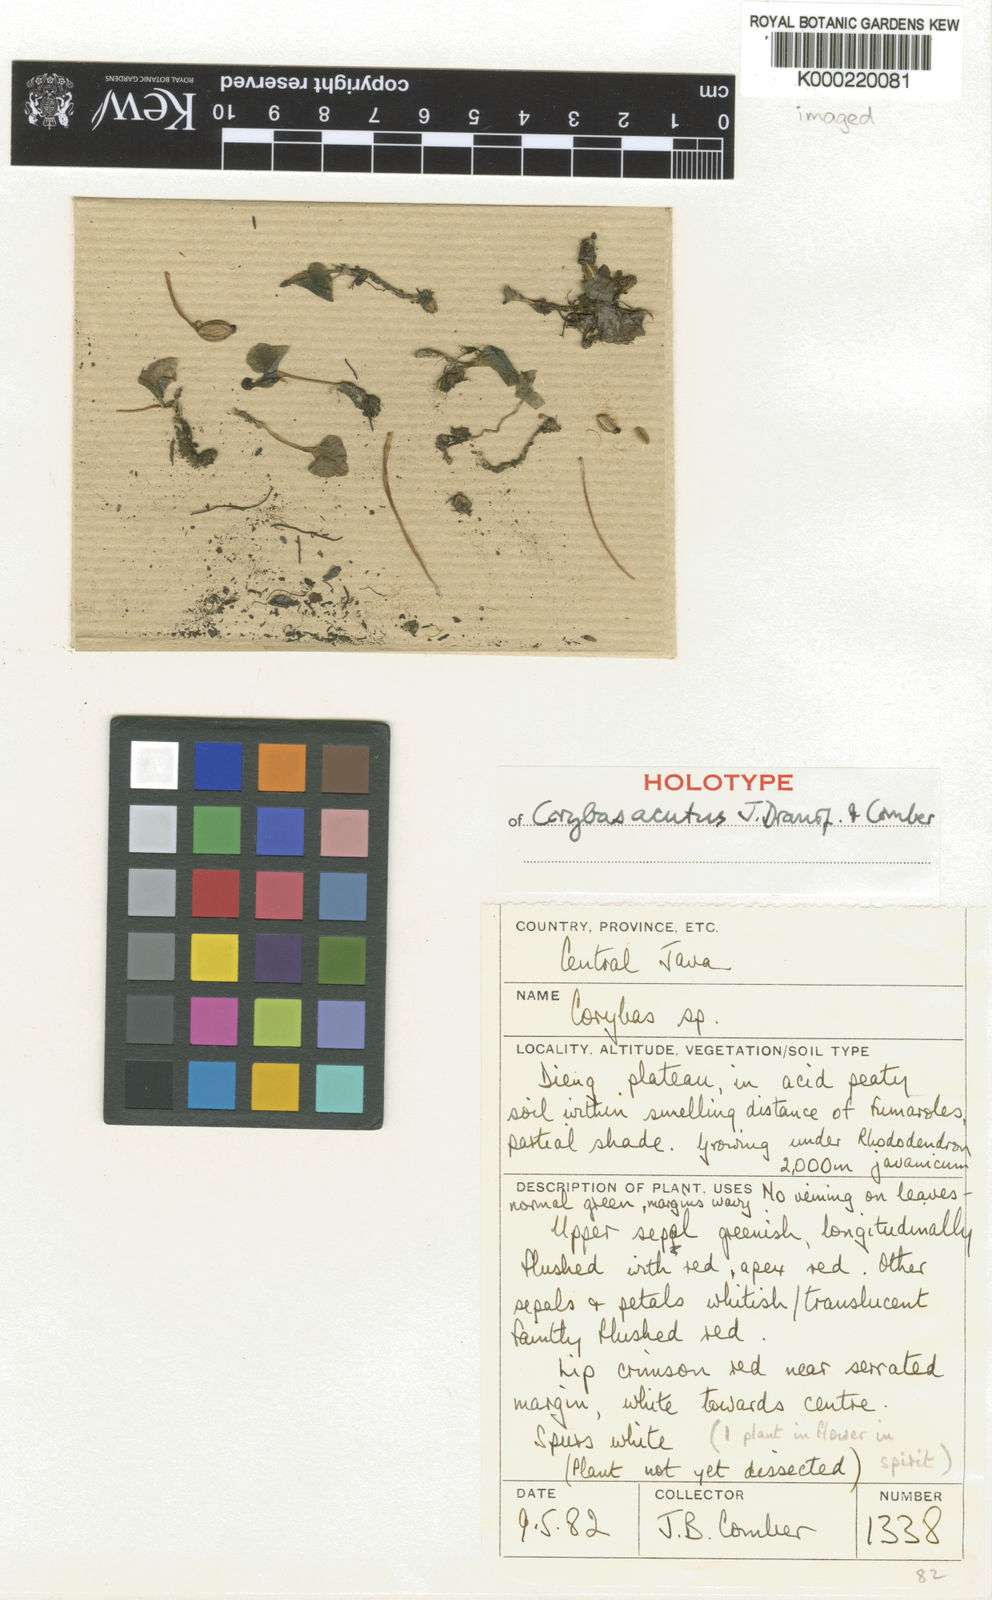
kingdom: Plantae
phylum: Tracheophyta
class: Liliopsida
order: Asparagales
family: Orchidaceae
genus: Corybas
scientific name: Corybas acutus
